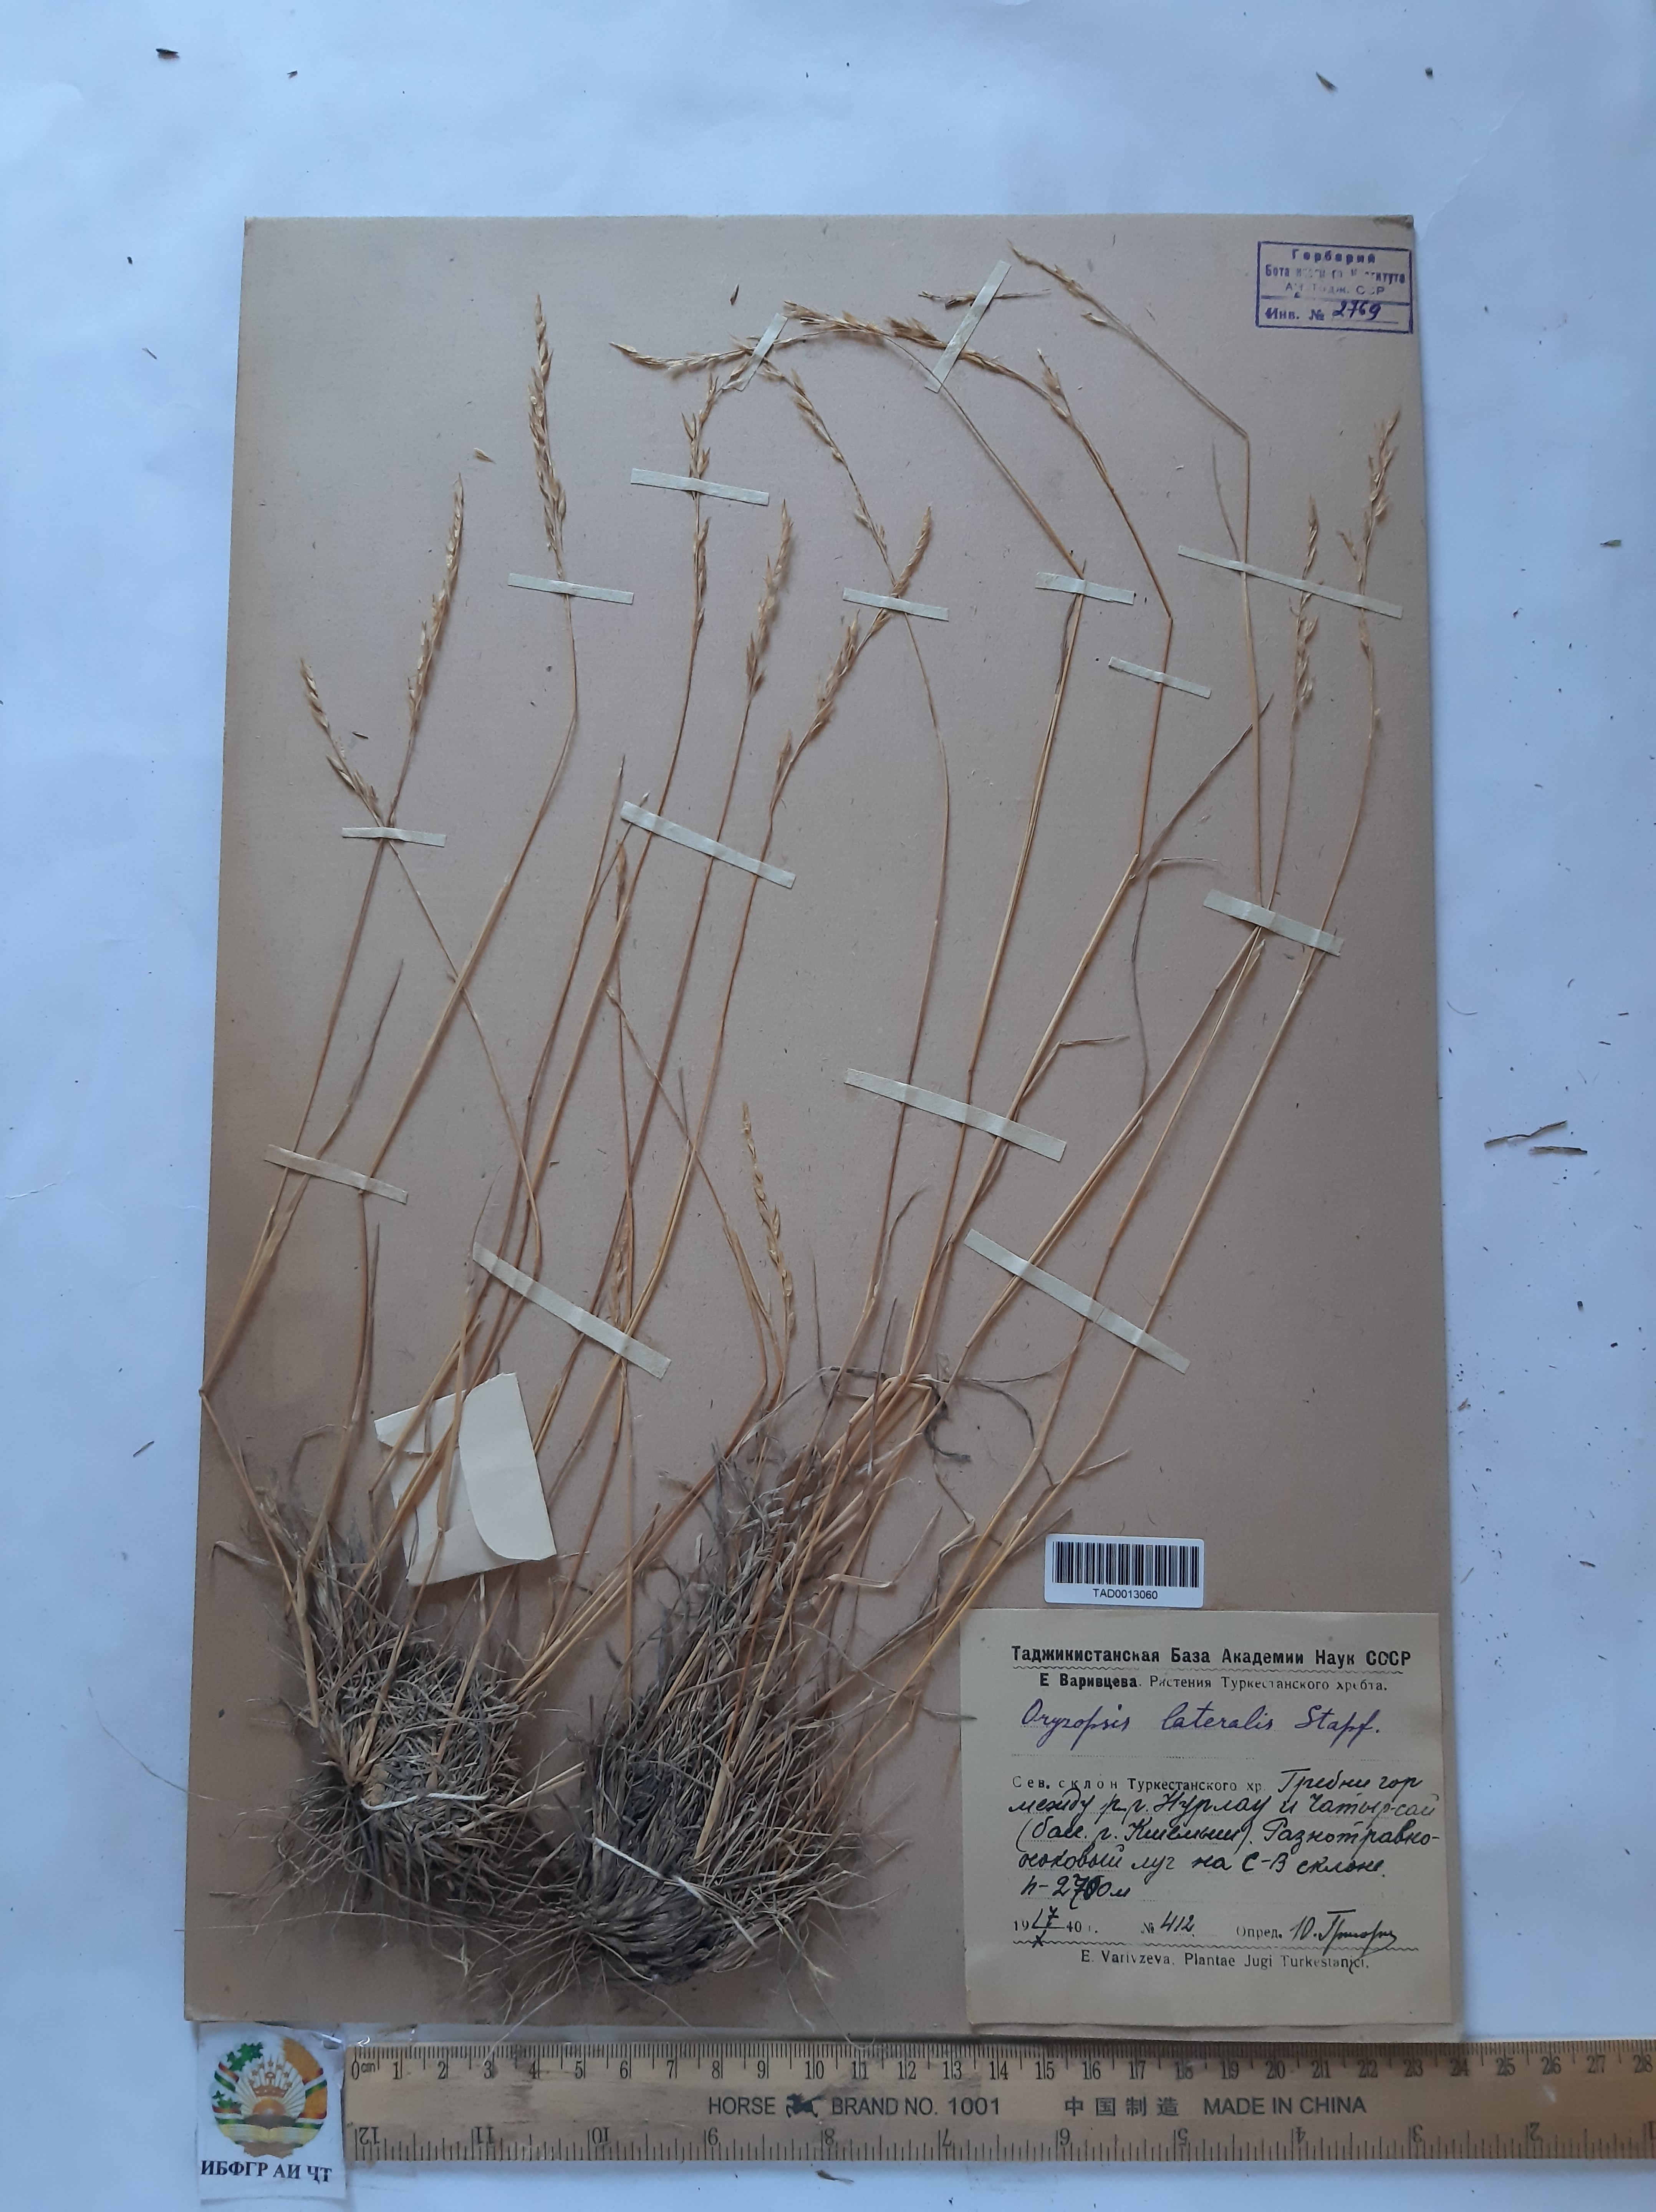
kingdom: Plantae
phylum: Tracheophyta
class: Liliopsida
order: Poales
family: Poaceae
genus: Piptatherum
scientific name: Piptatherum laterale
